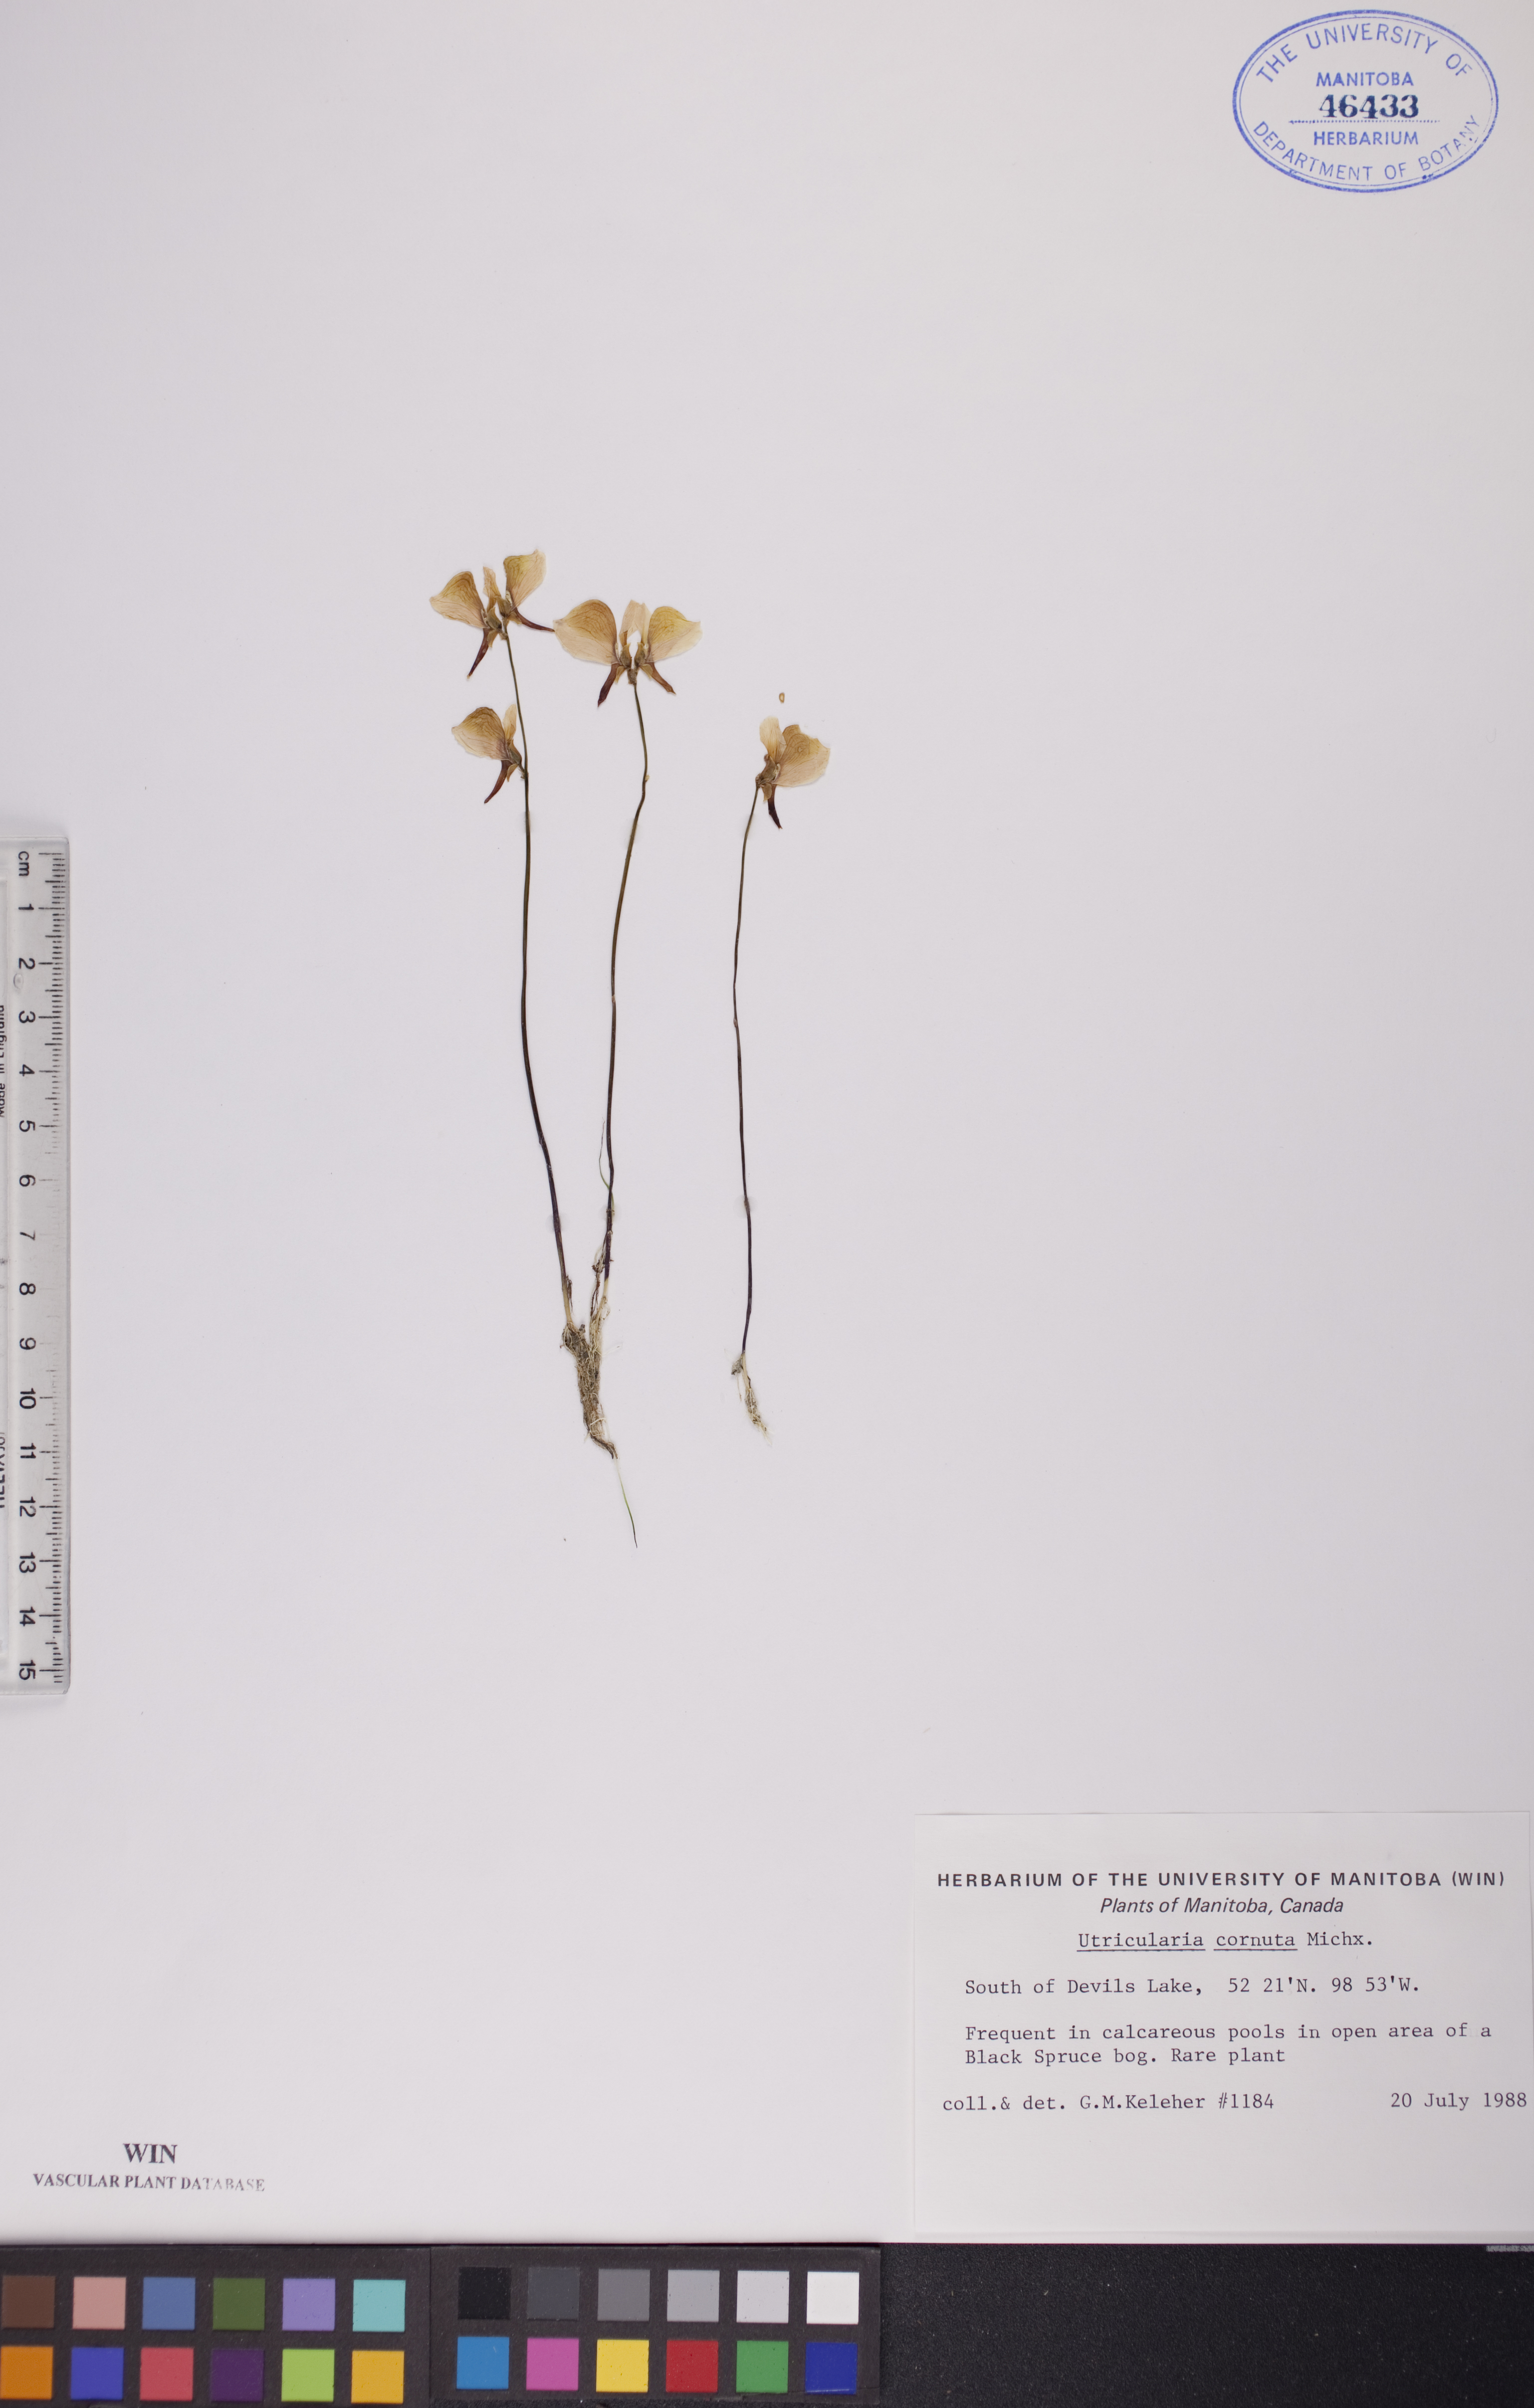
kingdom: Plantae
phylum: Tracheophyta
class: Magnoliopsida
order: Lamiales
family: Lentibulariaceae
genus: Utricularia
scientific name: Utricularia cornuta
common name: Horned bladderwort
